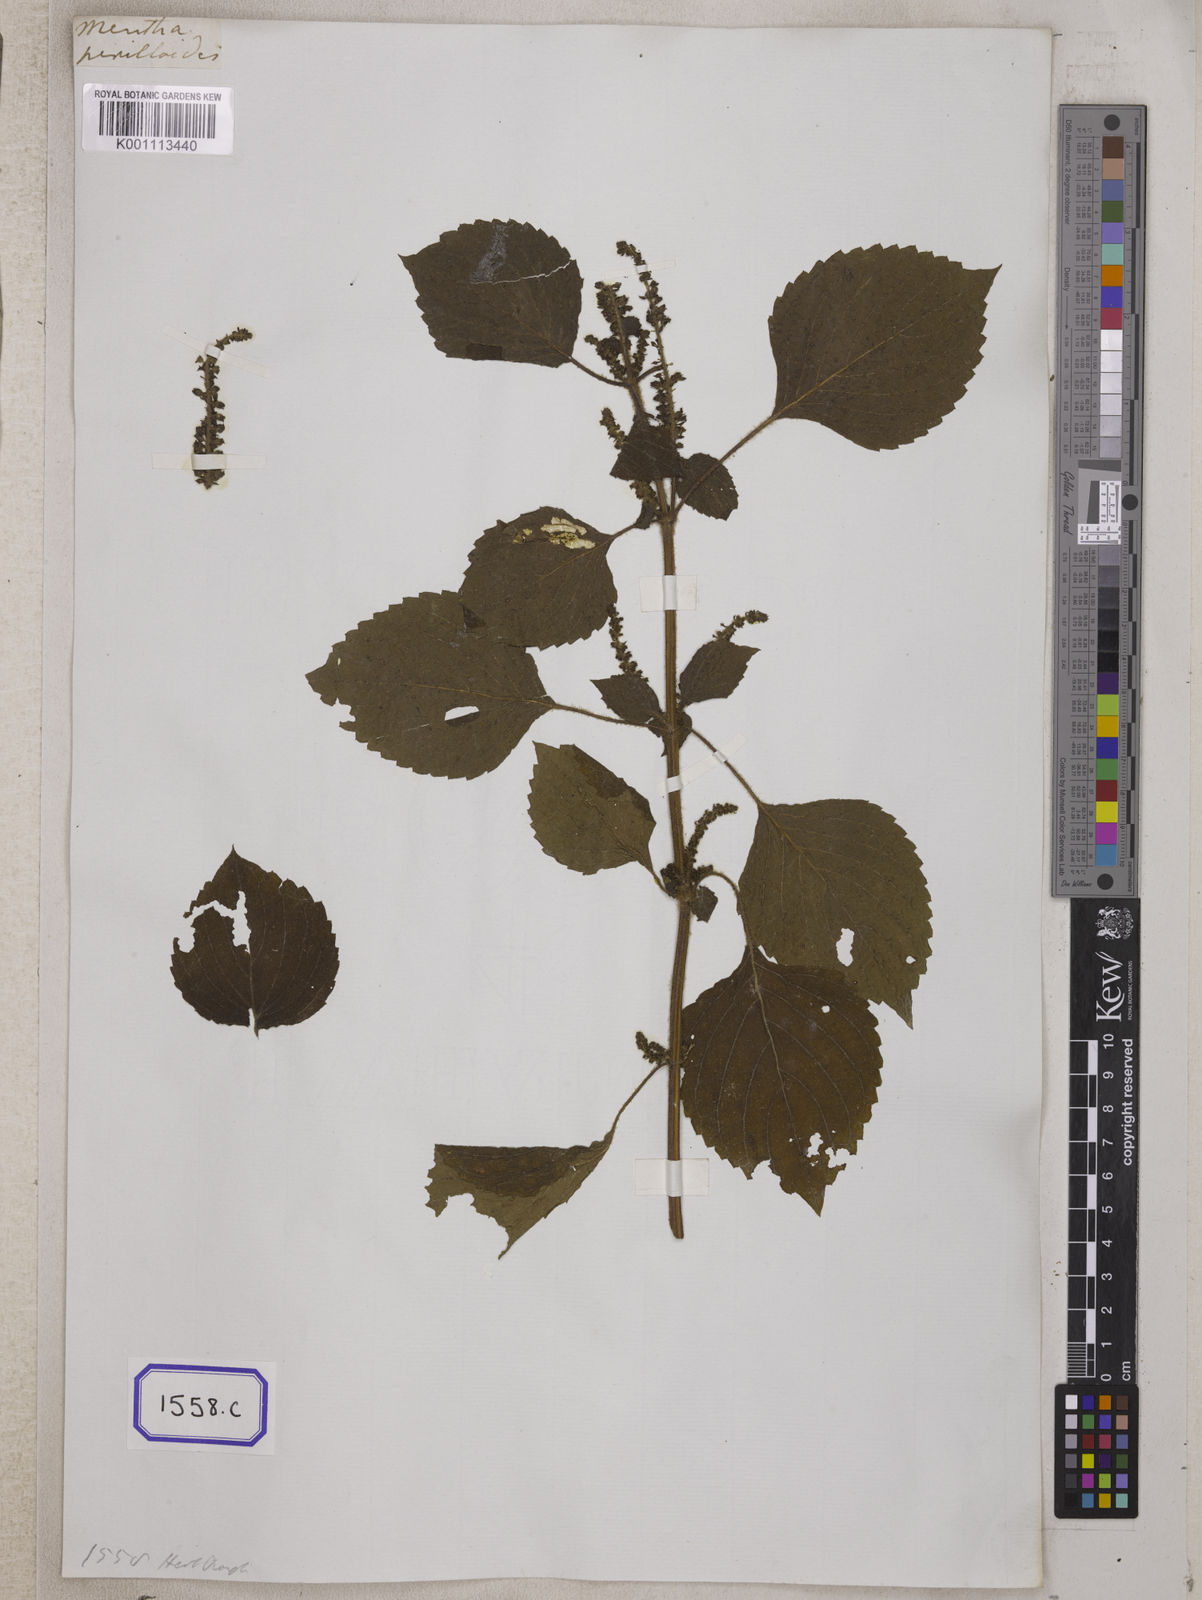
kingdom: Plantae
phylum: Tracheophyta
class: Magnoliopsida
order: Lamiales
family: Lamiaceae
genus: Perilla
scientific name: Perilla frutescens
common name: Perilla
